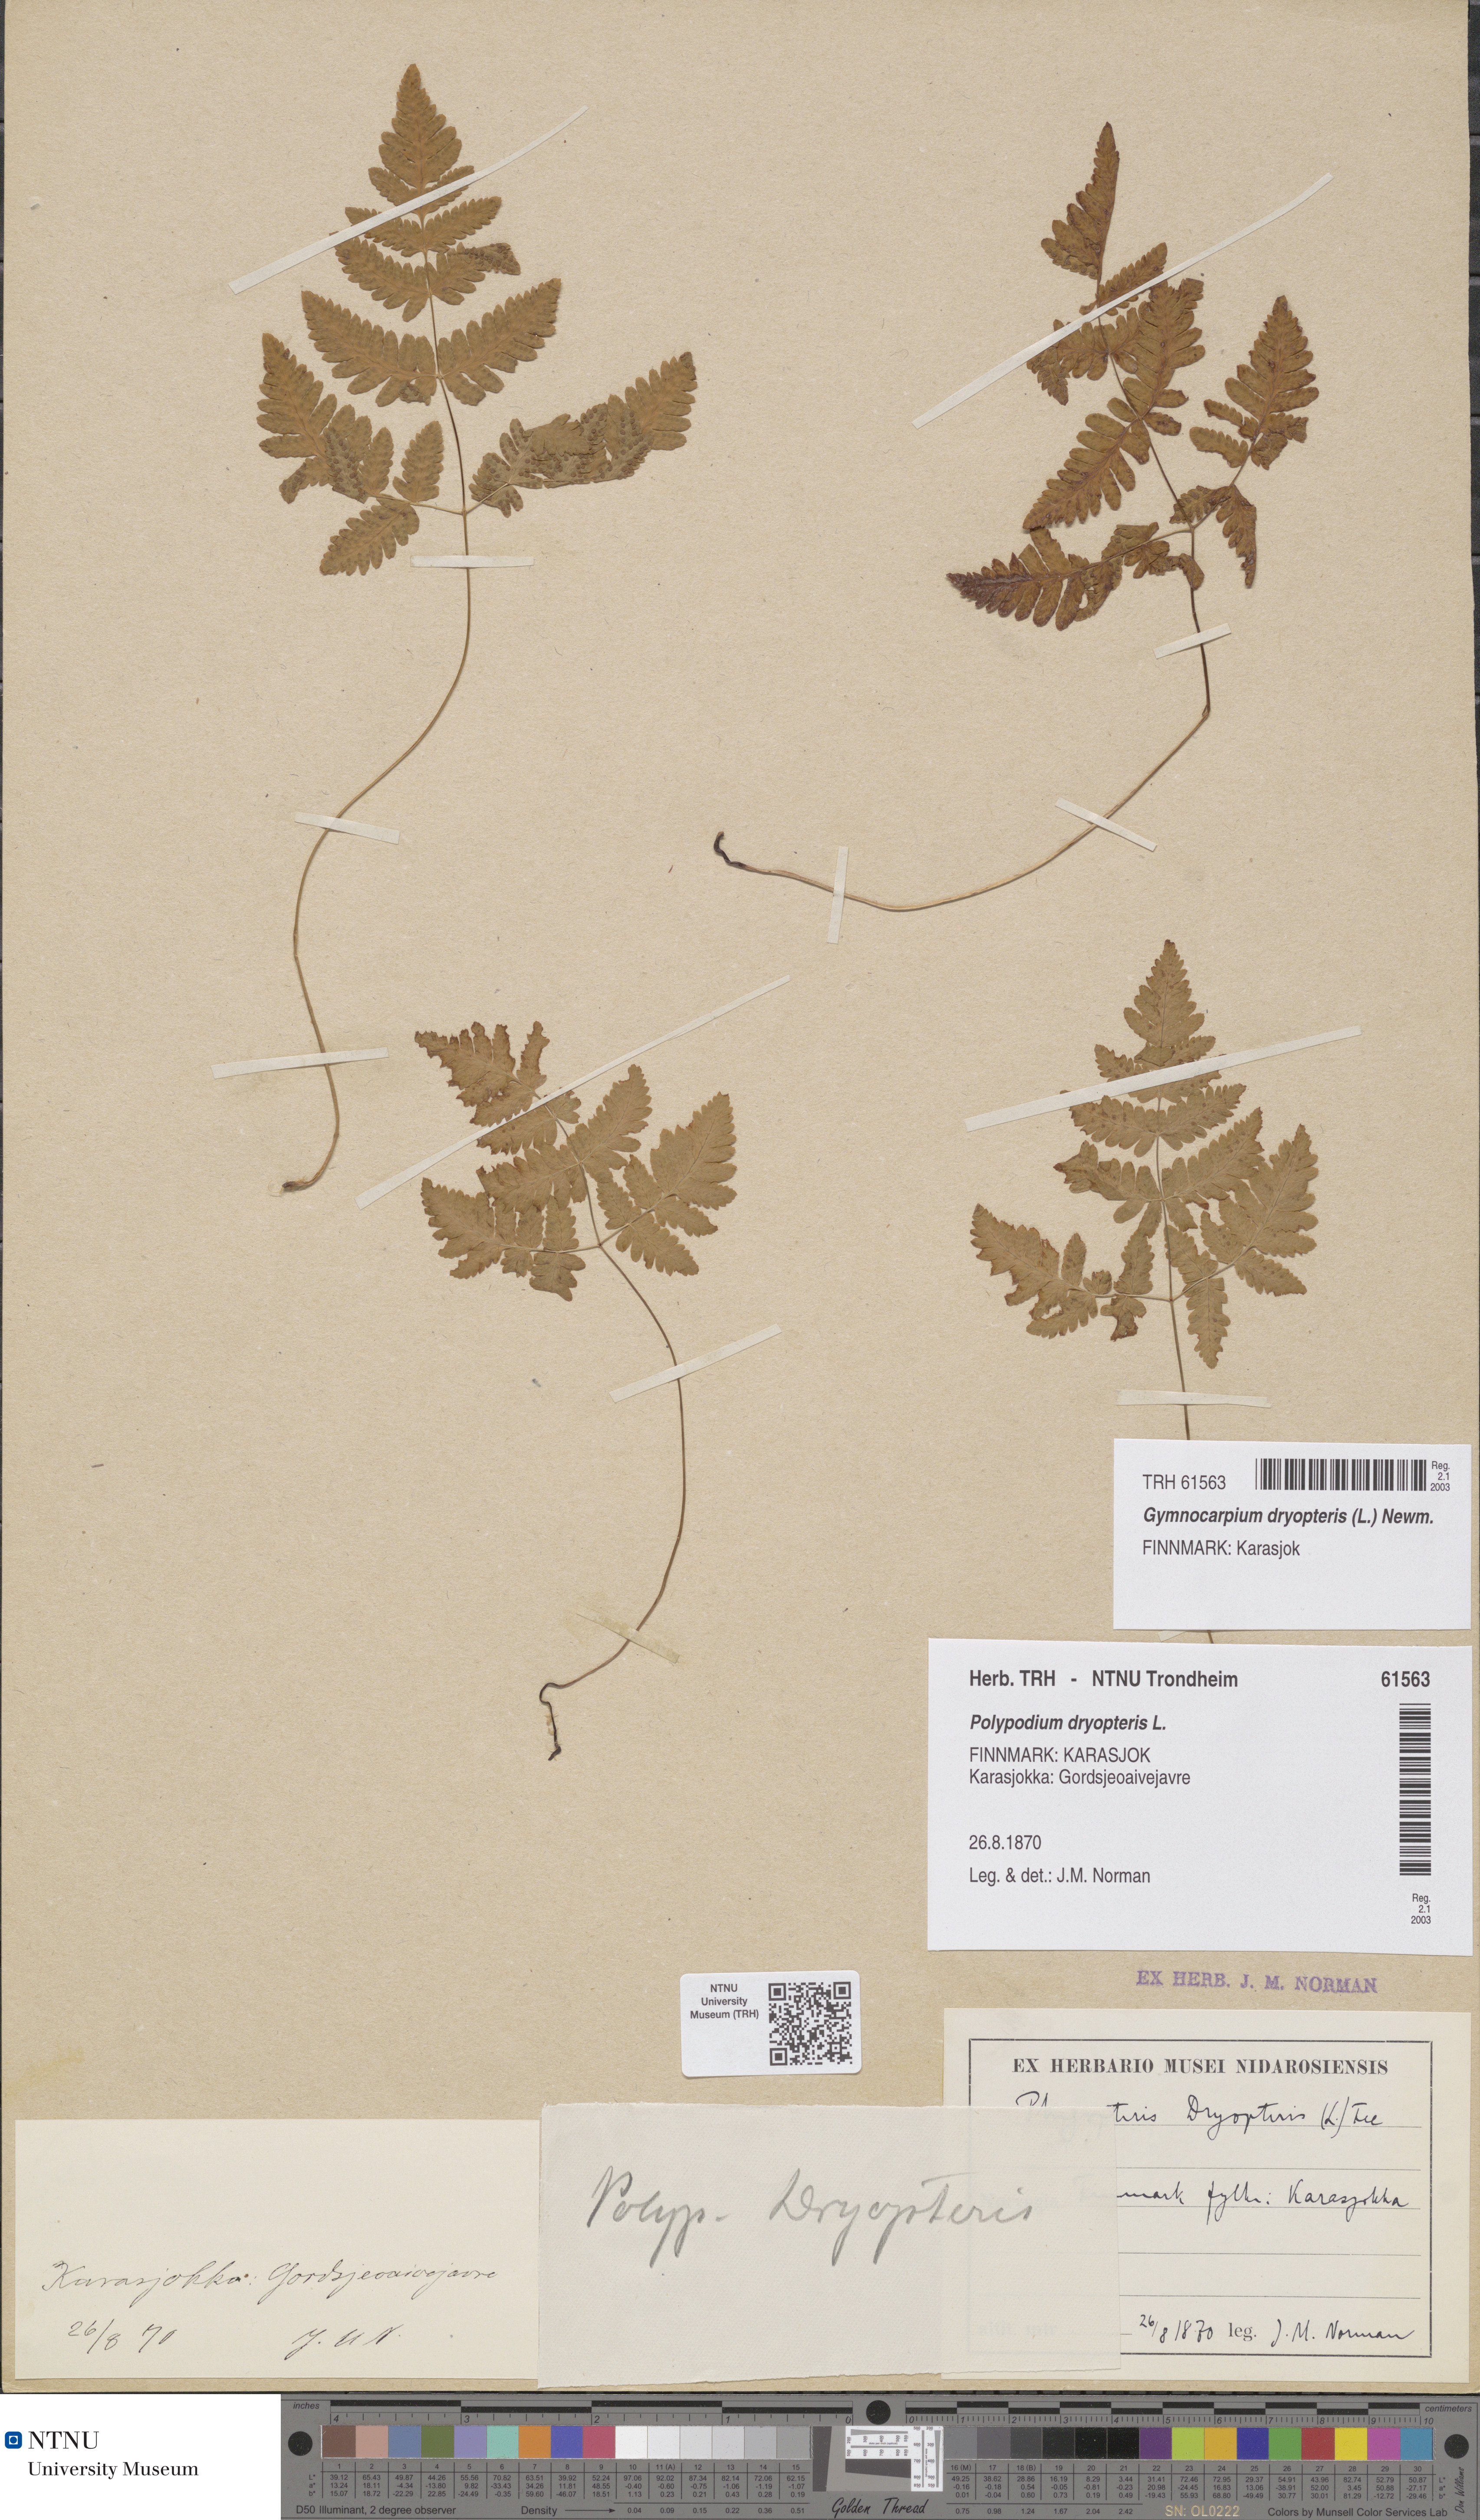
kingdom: Plantae
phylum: Tracheophyta
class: Polypodiopsida
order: Polypodiales
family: Cystopteridaceae
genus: Gymnocarpium
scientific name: Gymnocarpium dryopteris
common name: Oak fern
